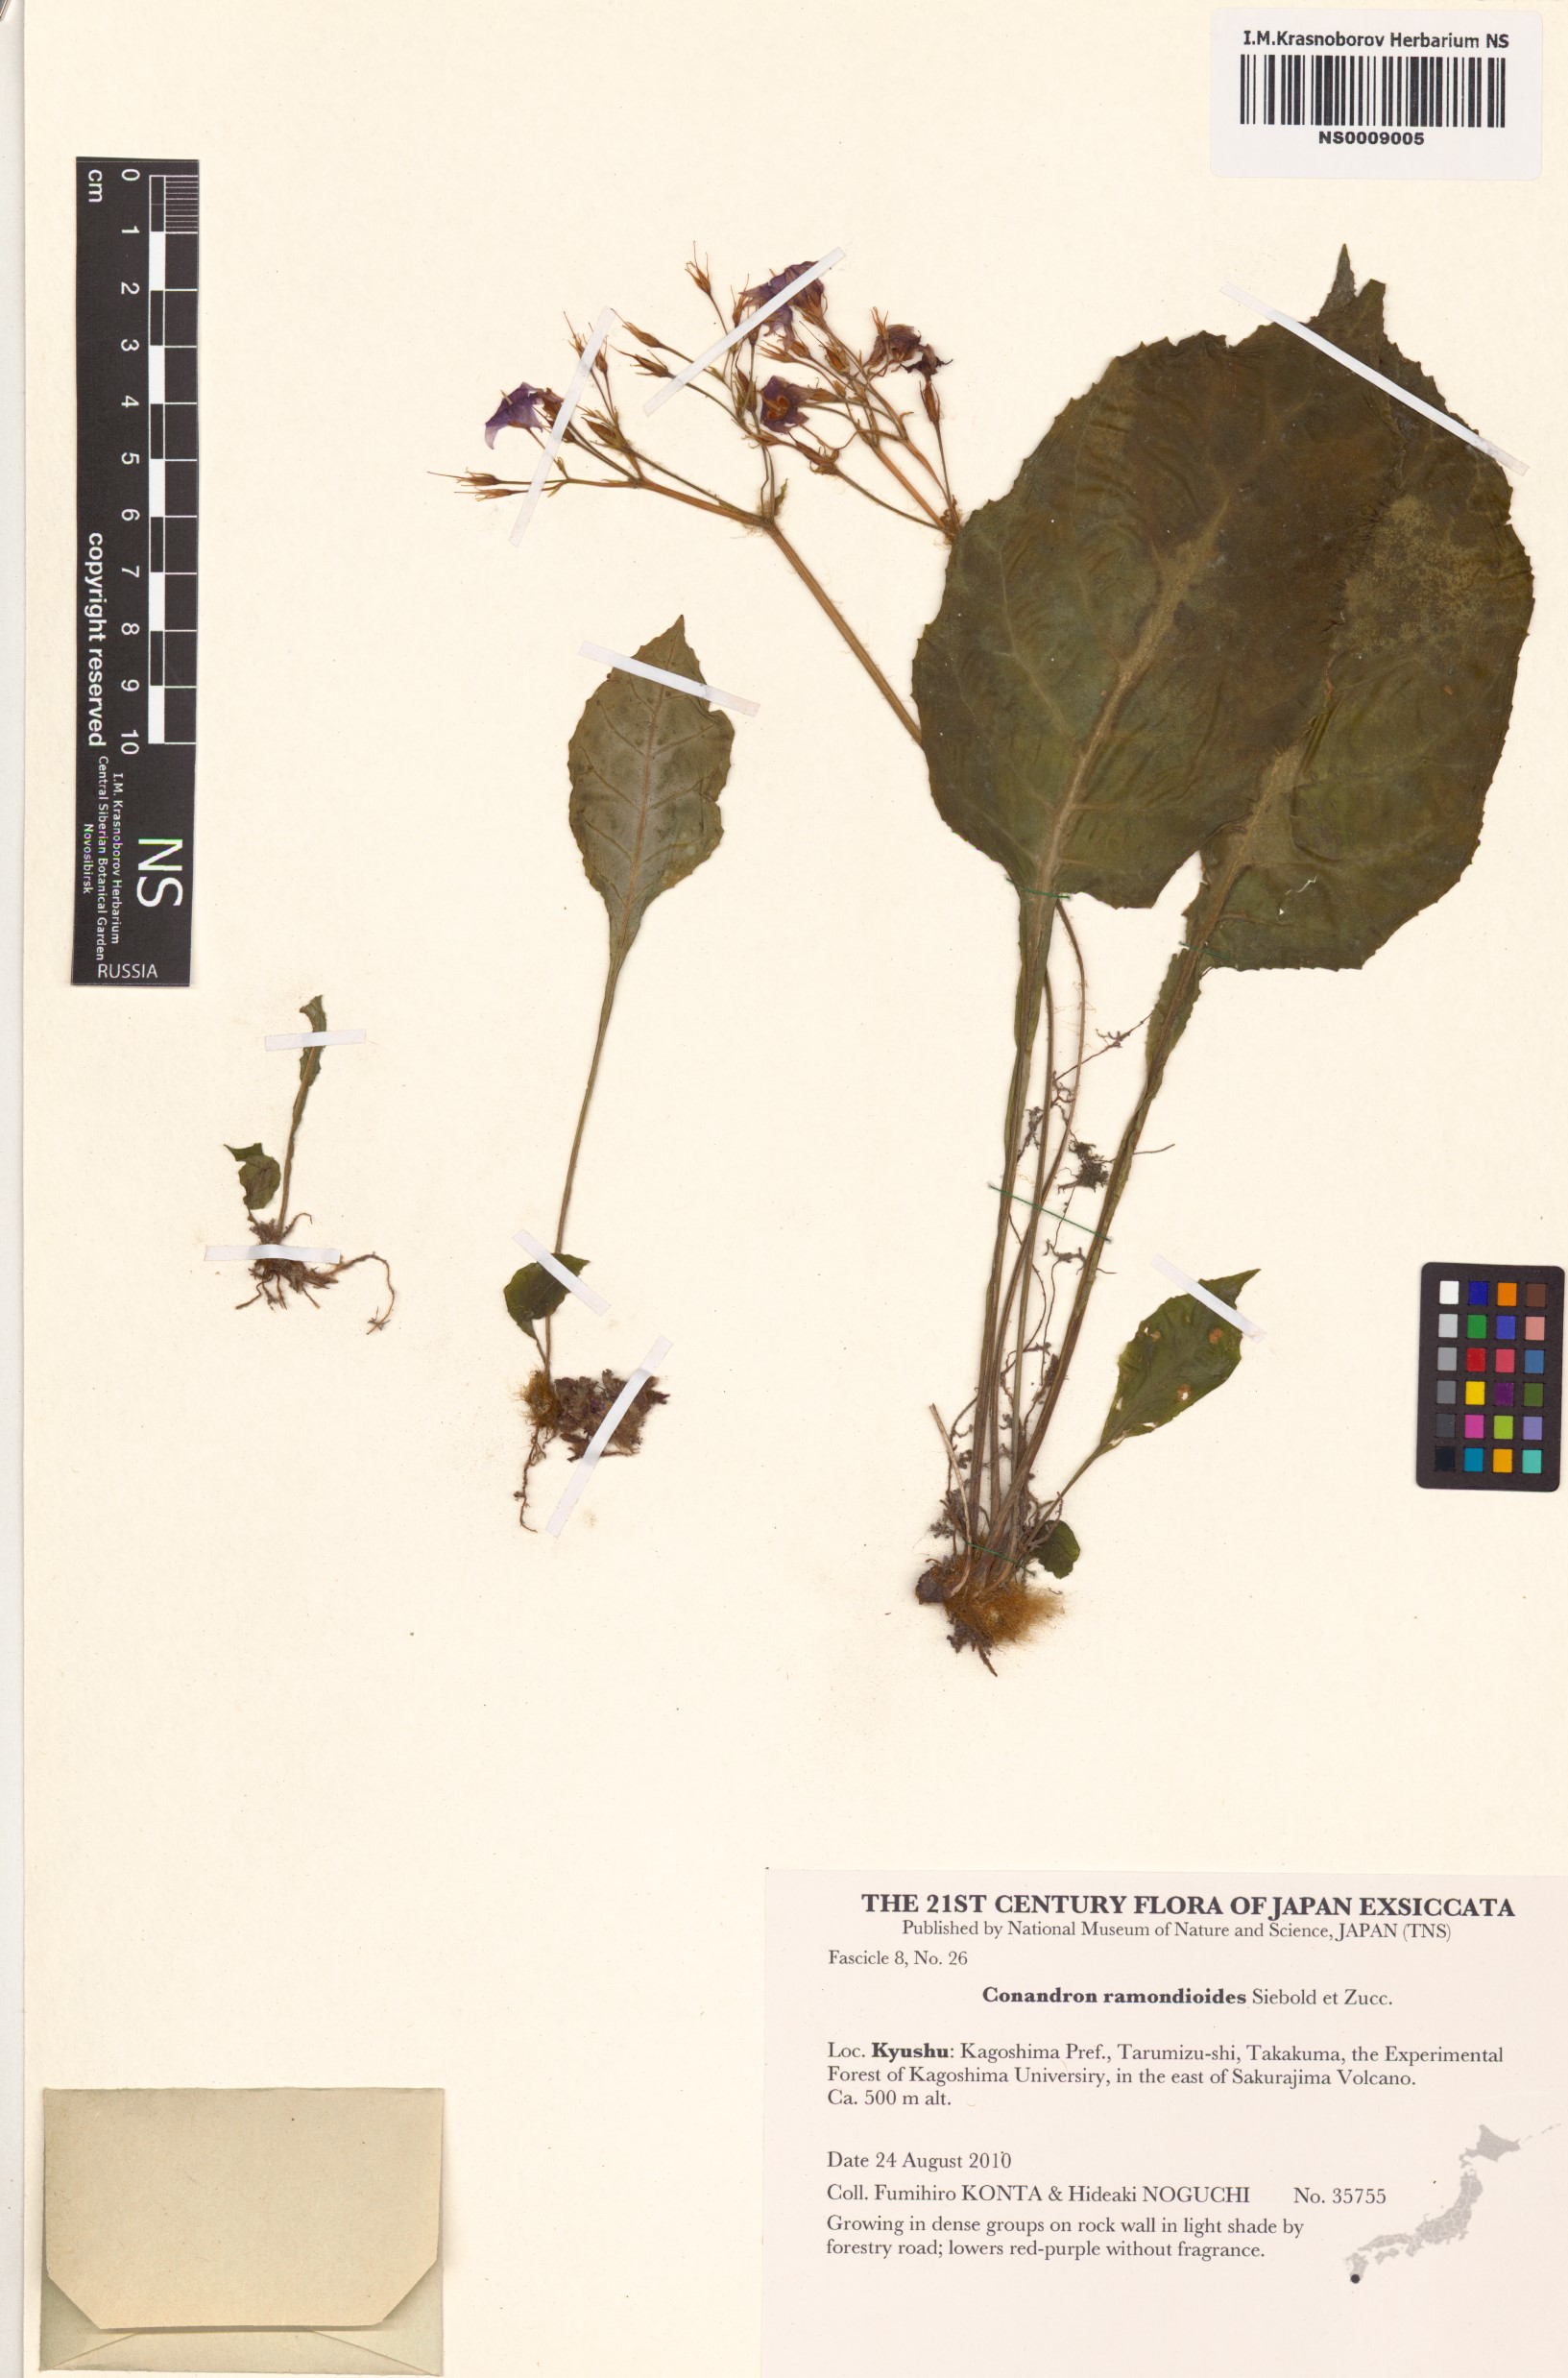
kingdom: Plantae
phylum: Tracheophyta
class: Magnoliopsida
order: Lamiales
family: Gesneriaceae
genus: Conandron
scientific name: Conandron ramondioides
